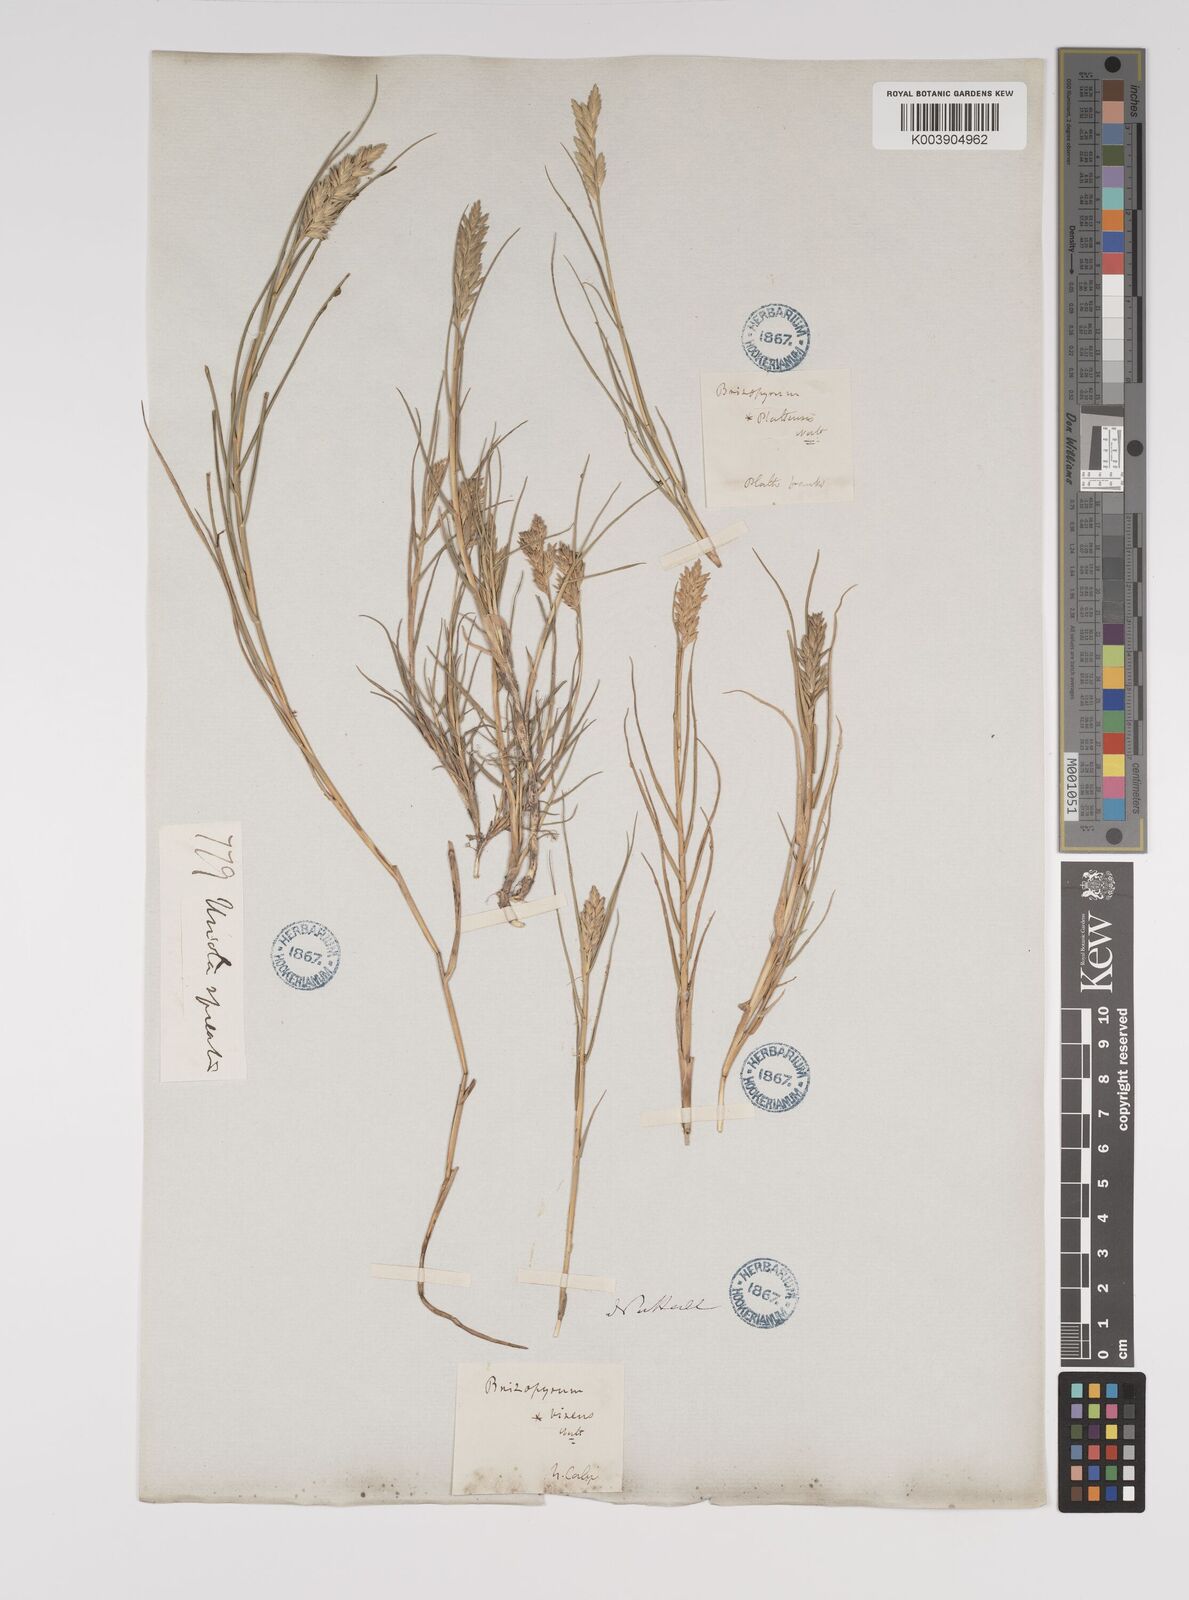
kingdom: Plantae
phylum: Tracheophyta
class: Liliopsida
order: Poales
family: Poaceae
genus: Distichlis
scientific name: Distichlis spicata
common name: Saltgrass
